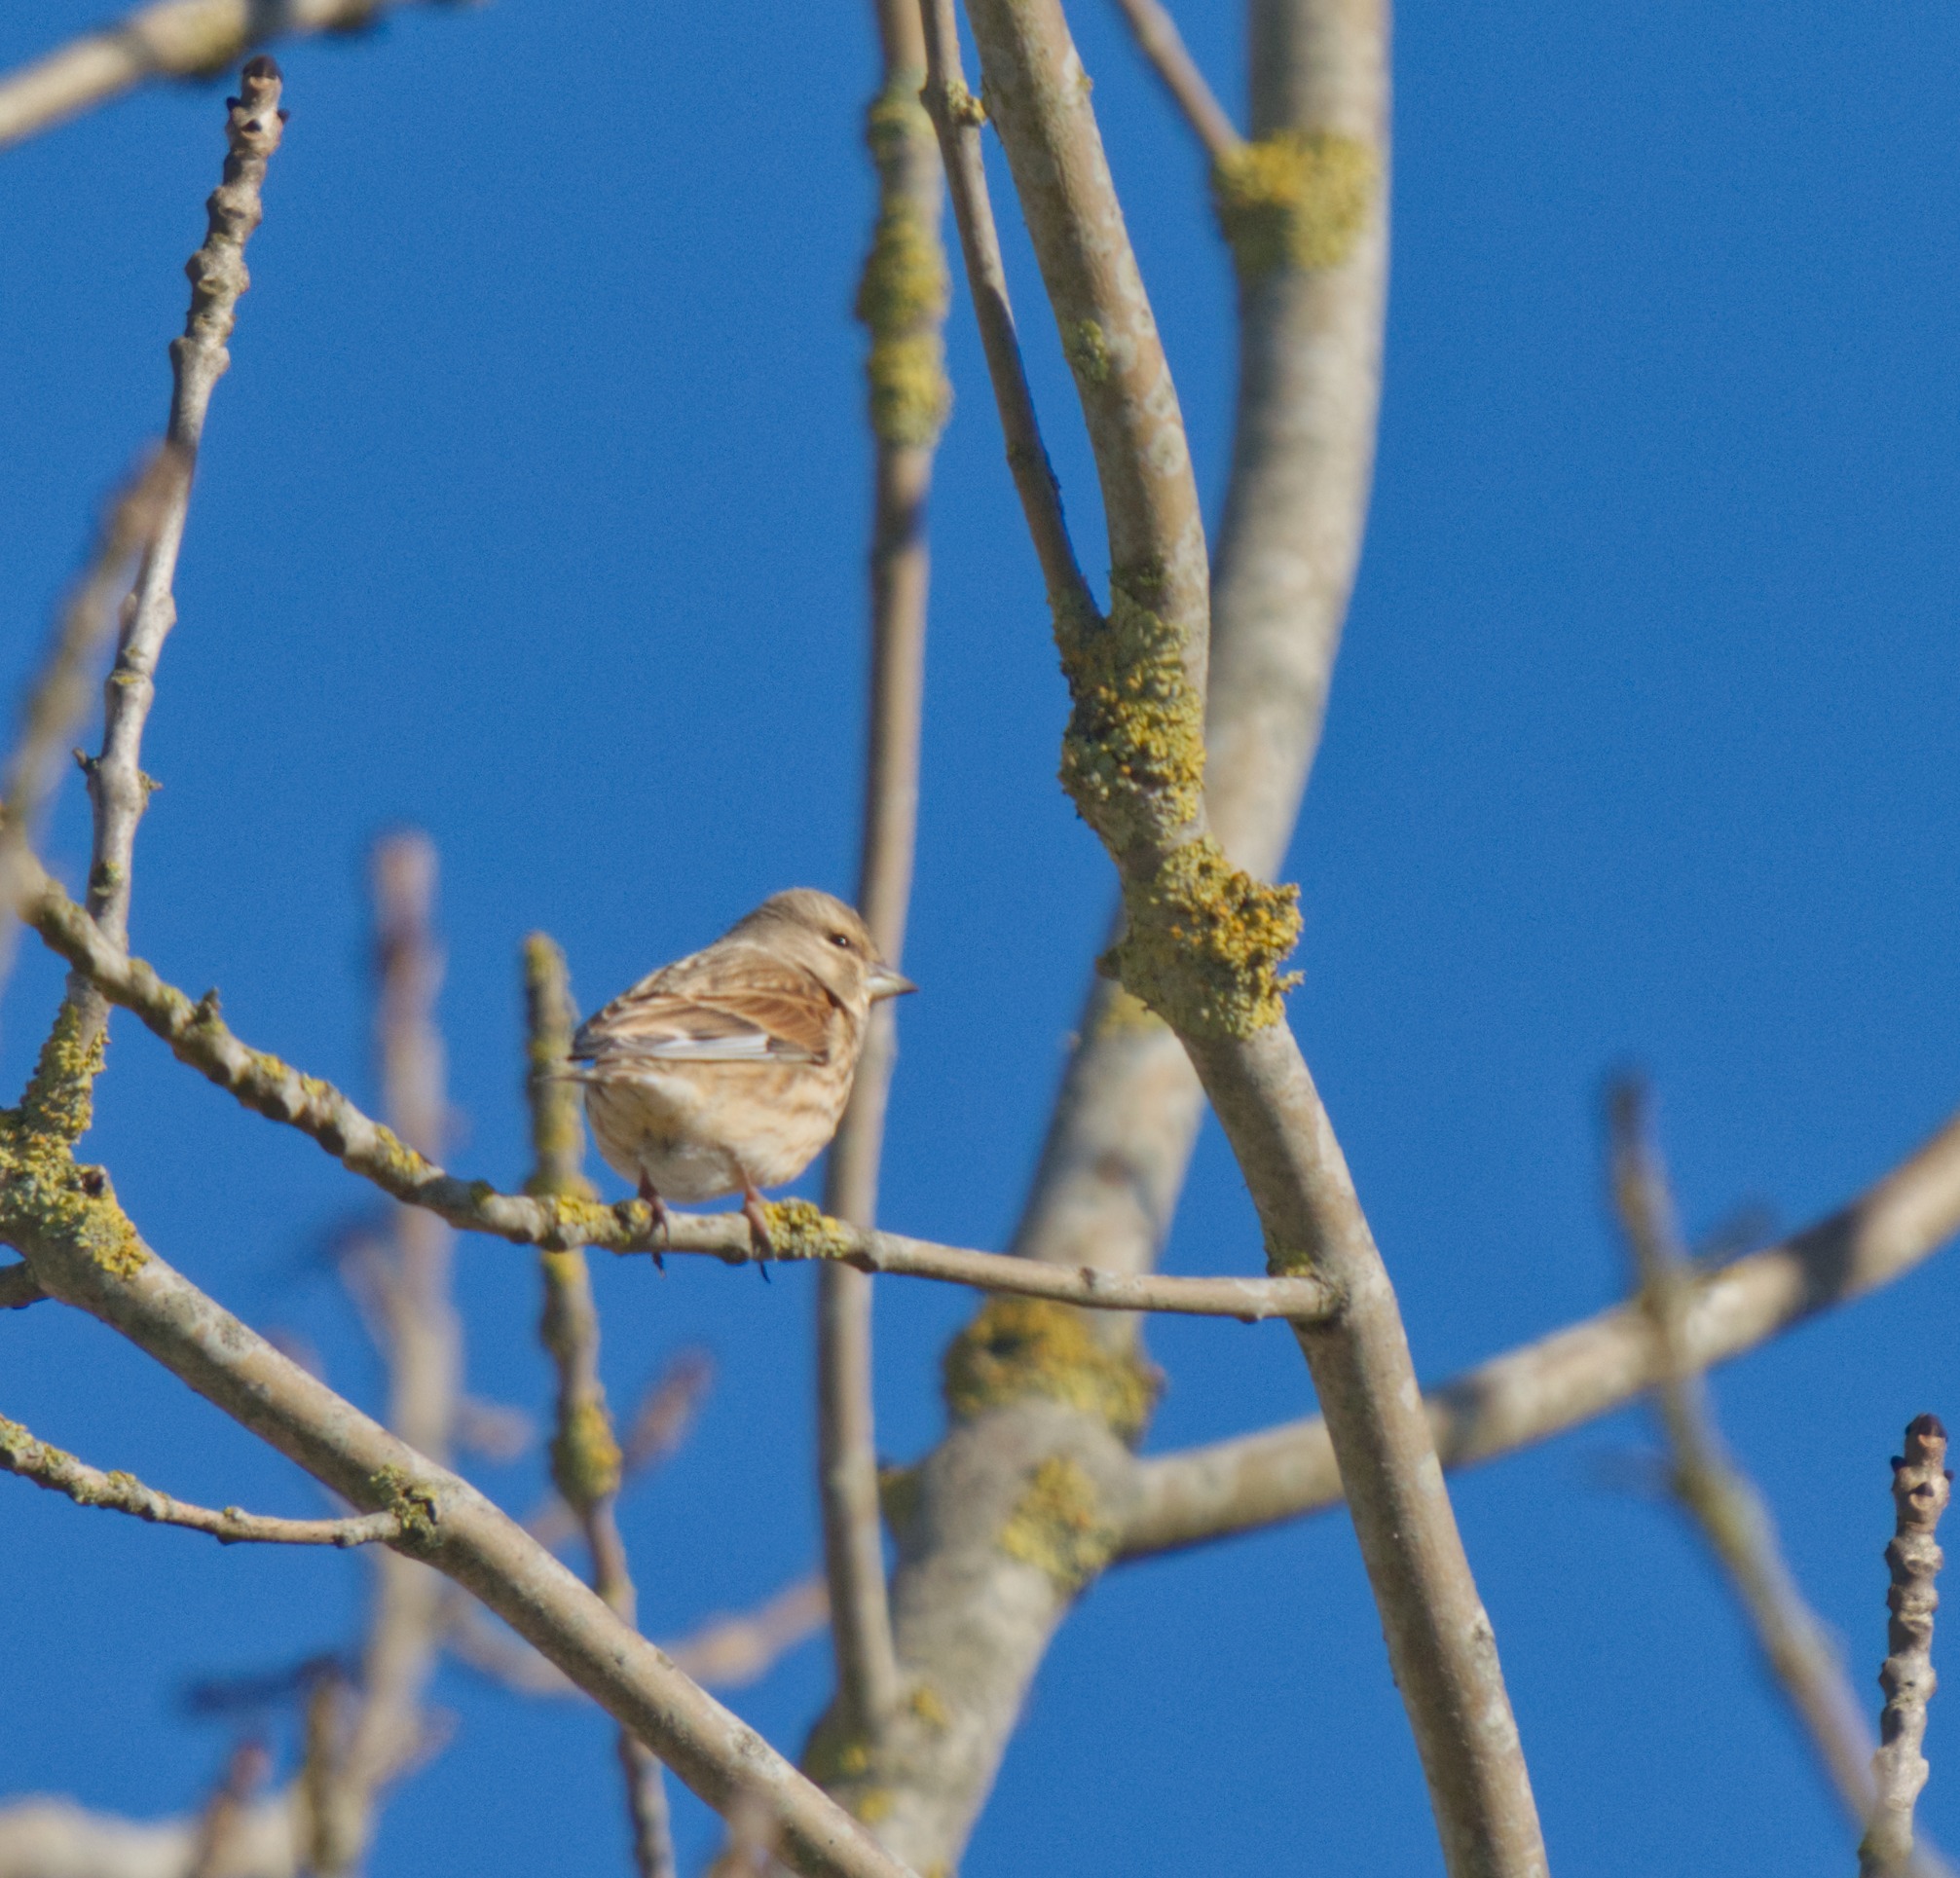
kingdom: Animalia
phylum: Chordata
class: Aves
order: Passeriformes
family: Fringillidae
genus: Linaria
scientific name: Linaria cannabina
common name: Tornirisk
